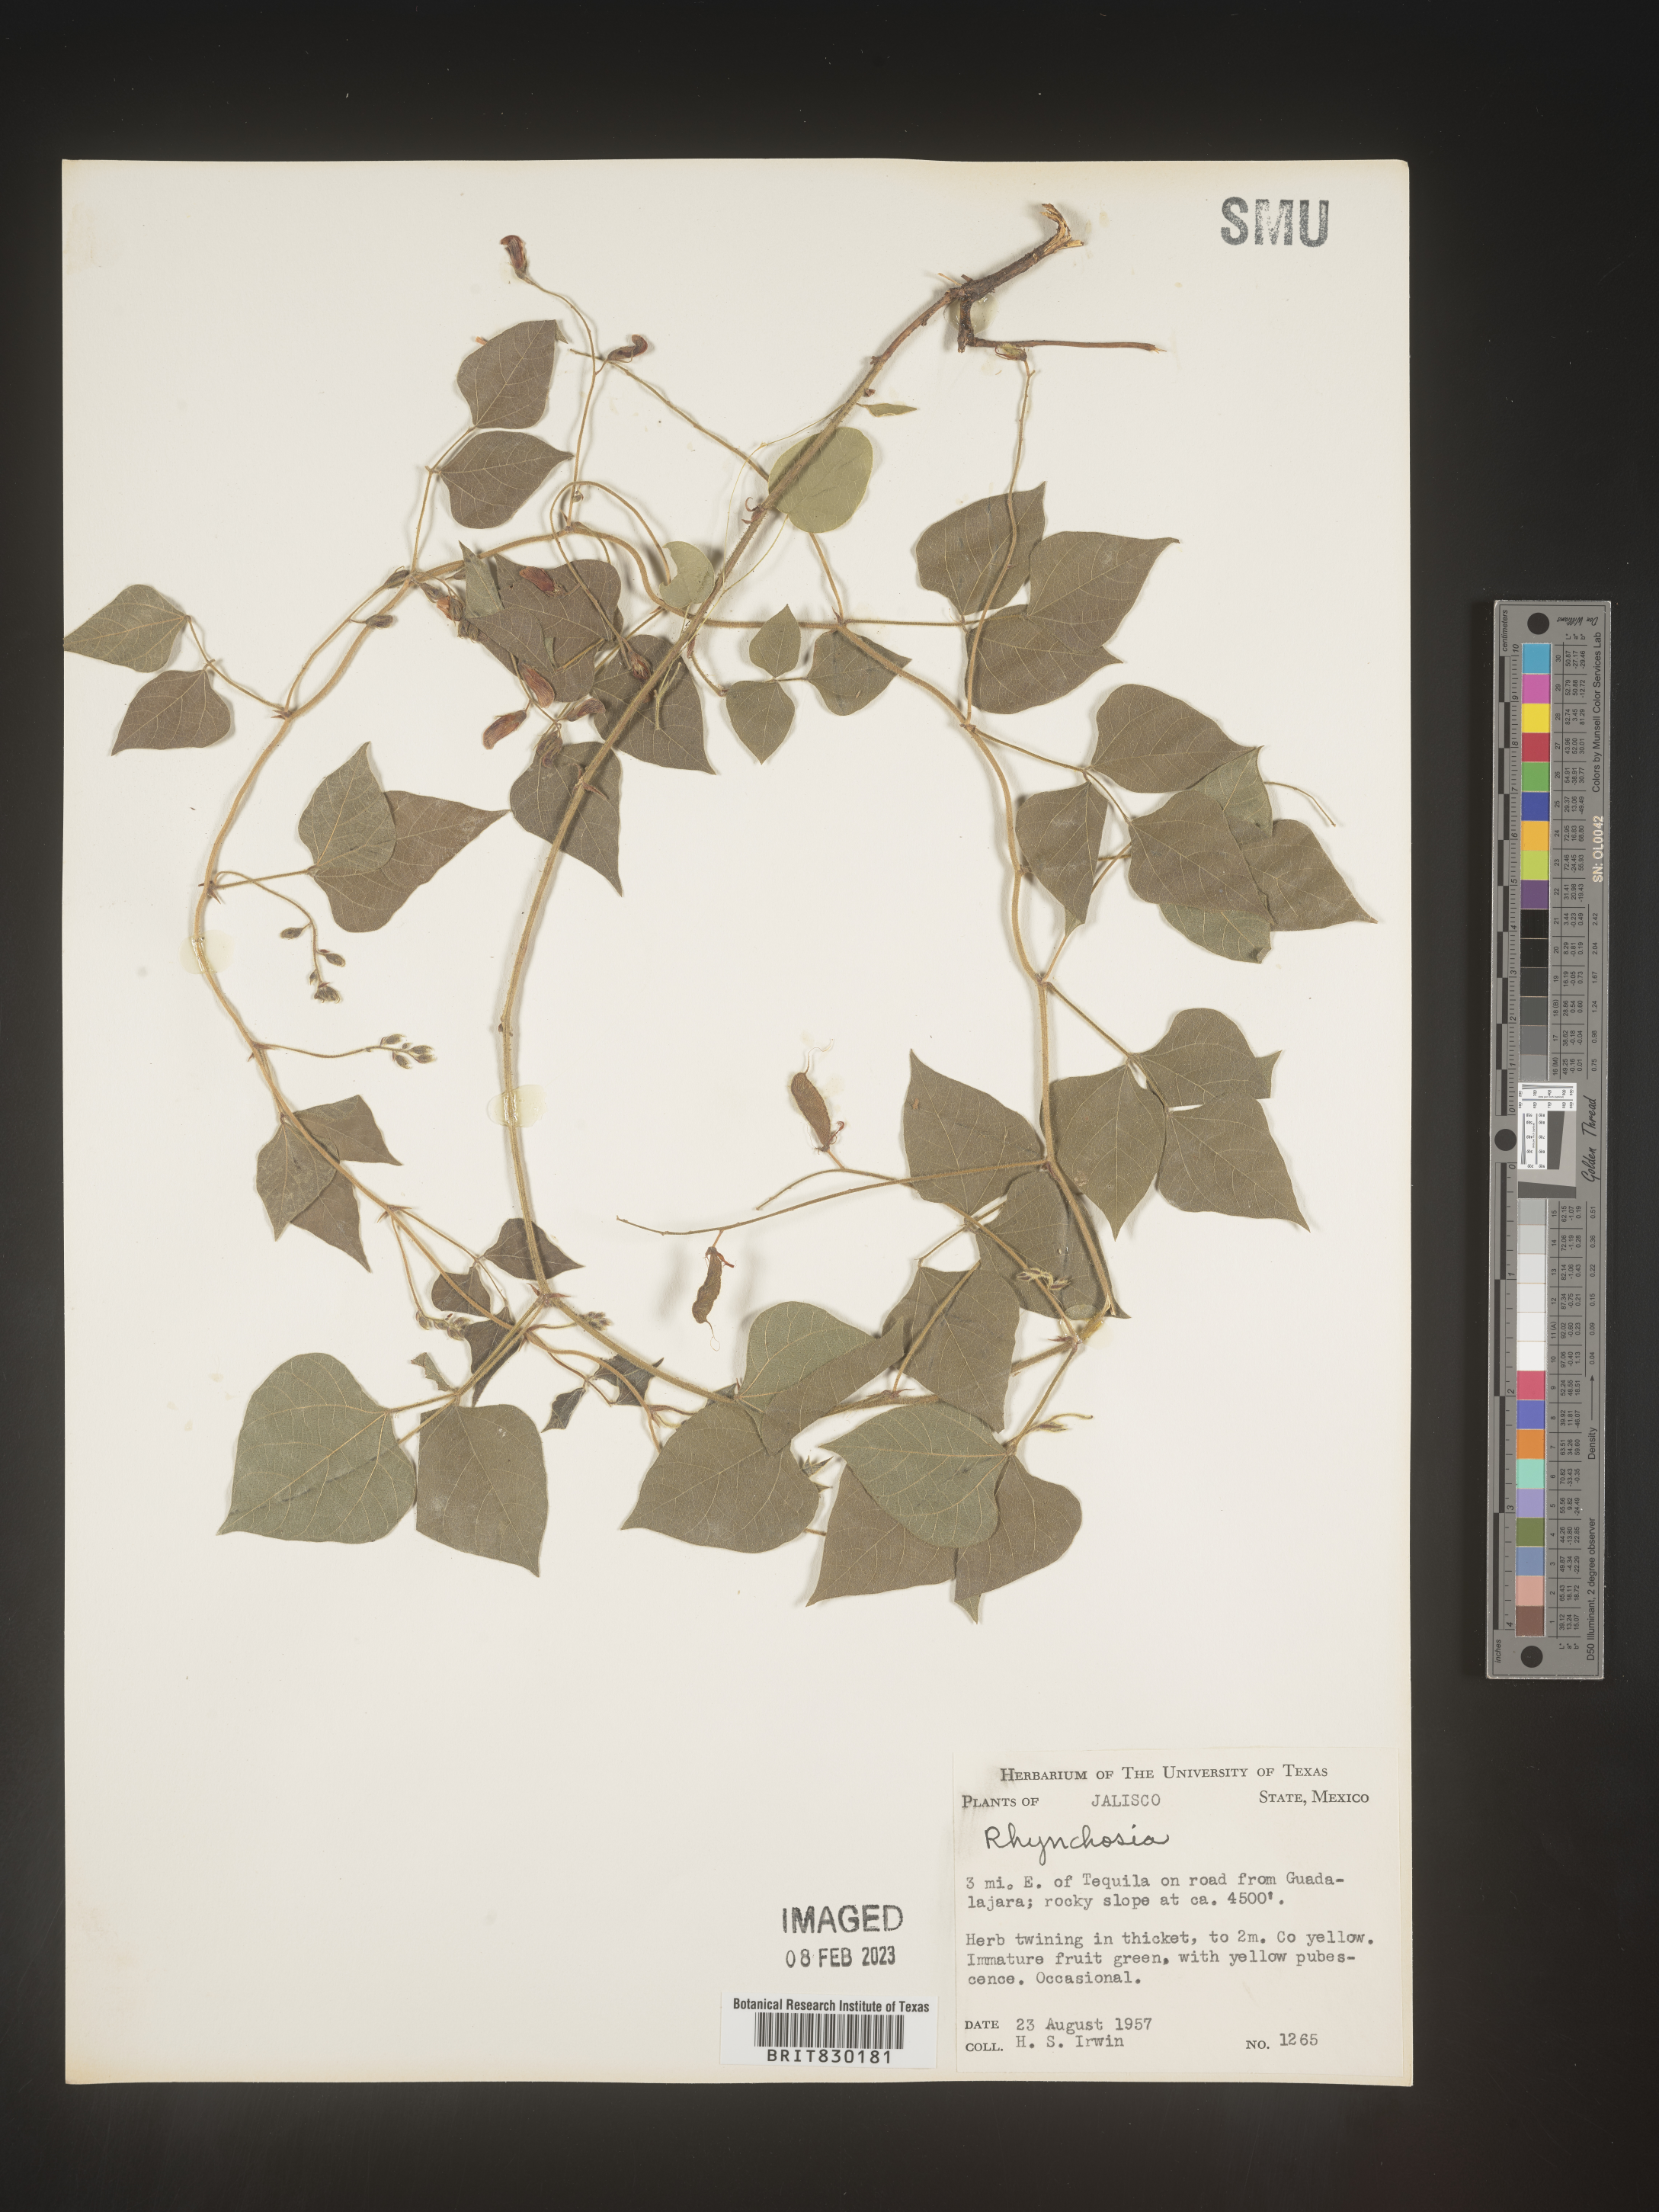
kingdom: Plantae
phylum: Tracheophyta
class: Magnoliopsida
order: Fabales
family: Fabaceae
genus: Rhynchosia
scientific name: Rhynchosia
